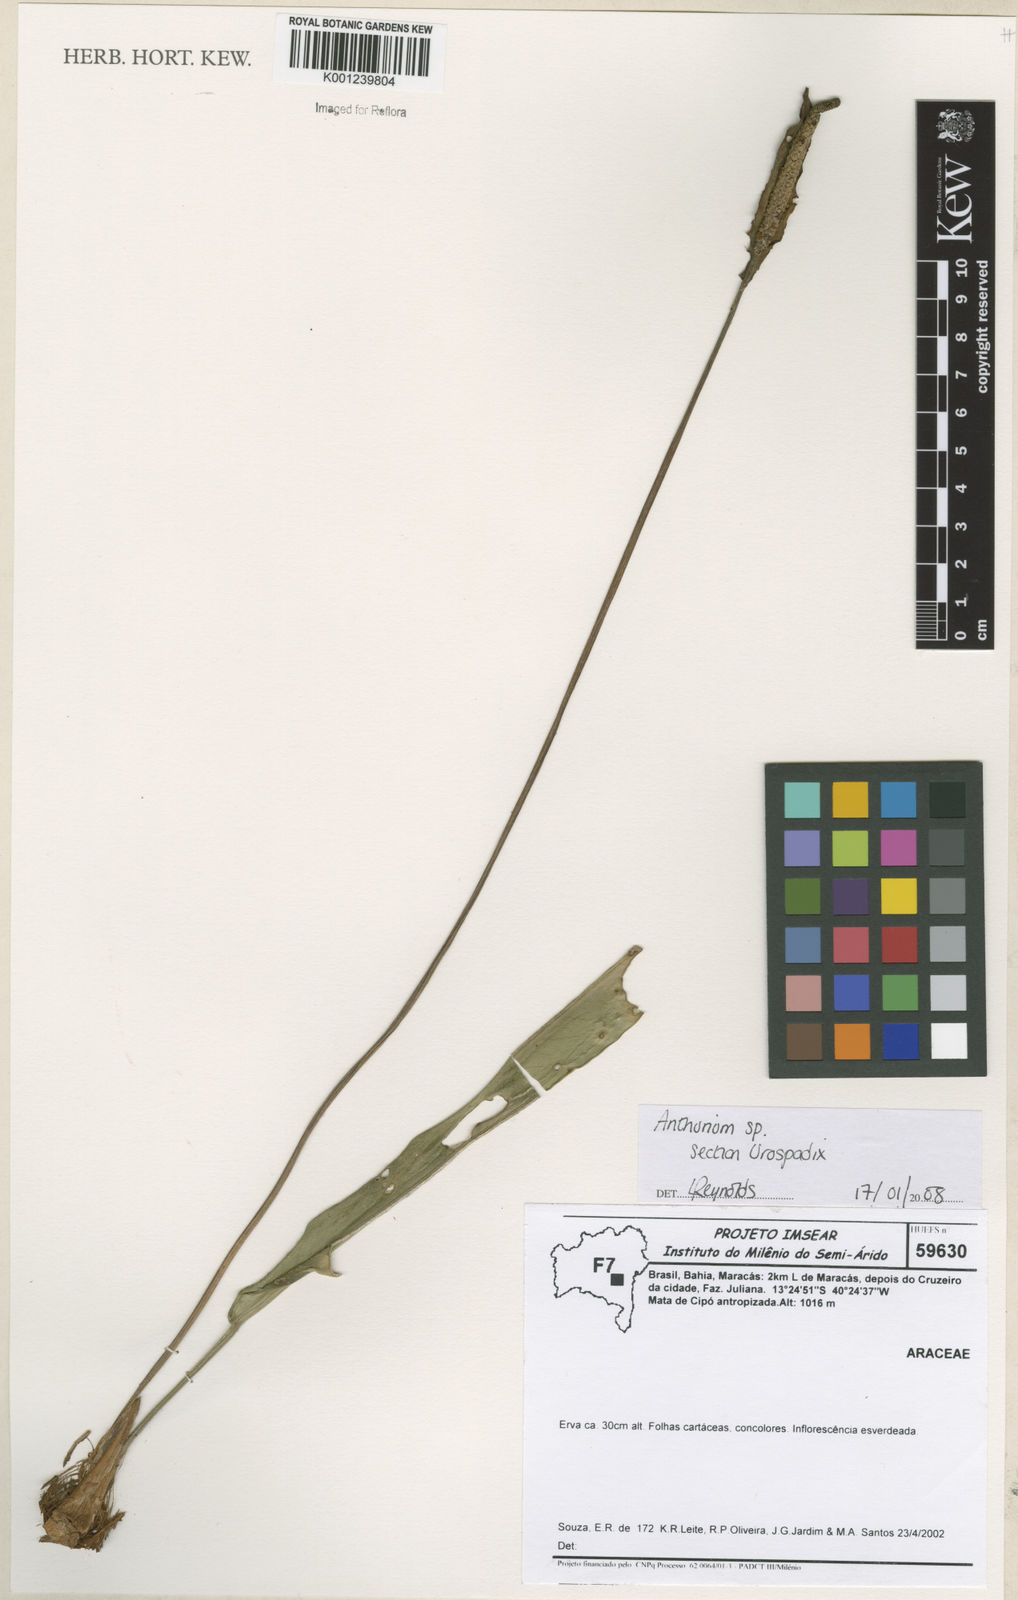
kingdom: Plantae
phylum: Tracheophyta
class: Liliopsida
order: Alismatales
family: Araceae
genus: Anthurium
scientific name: Anthurium
